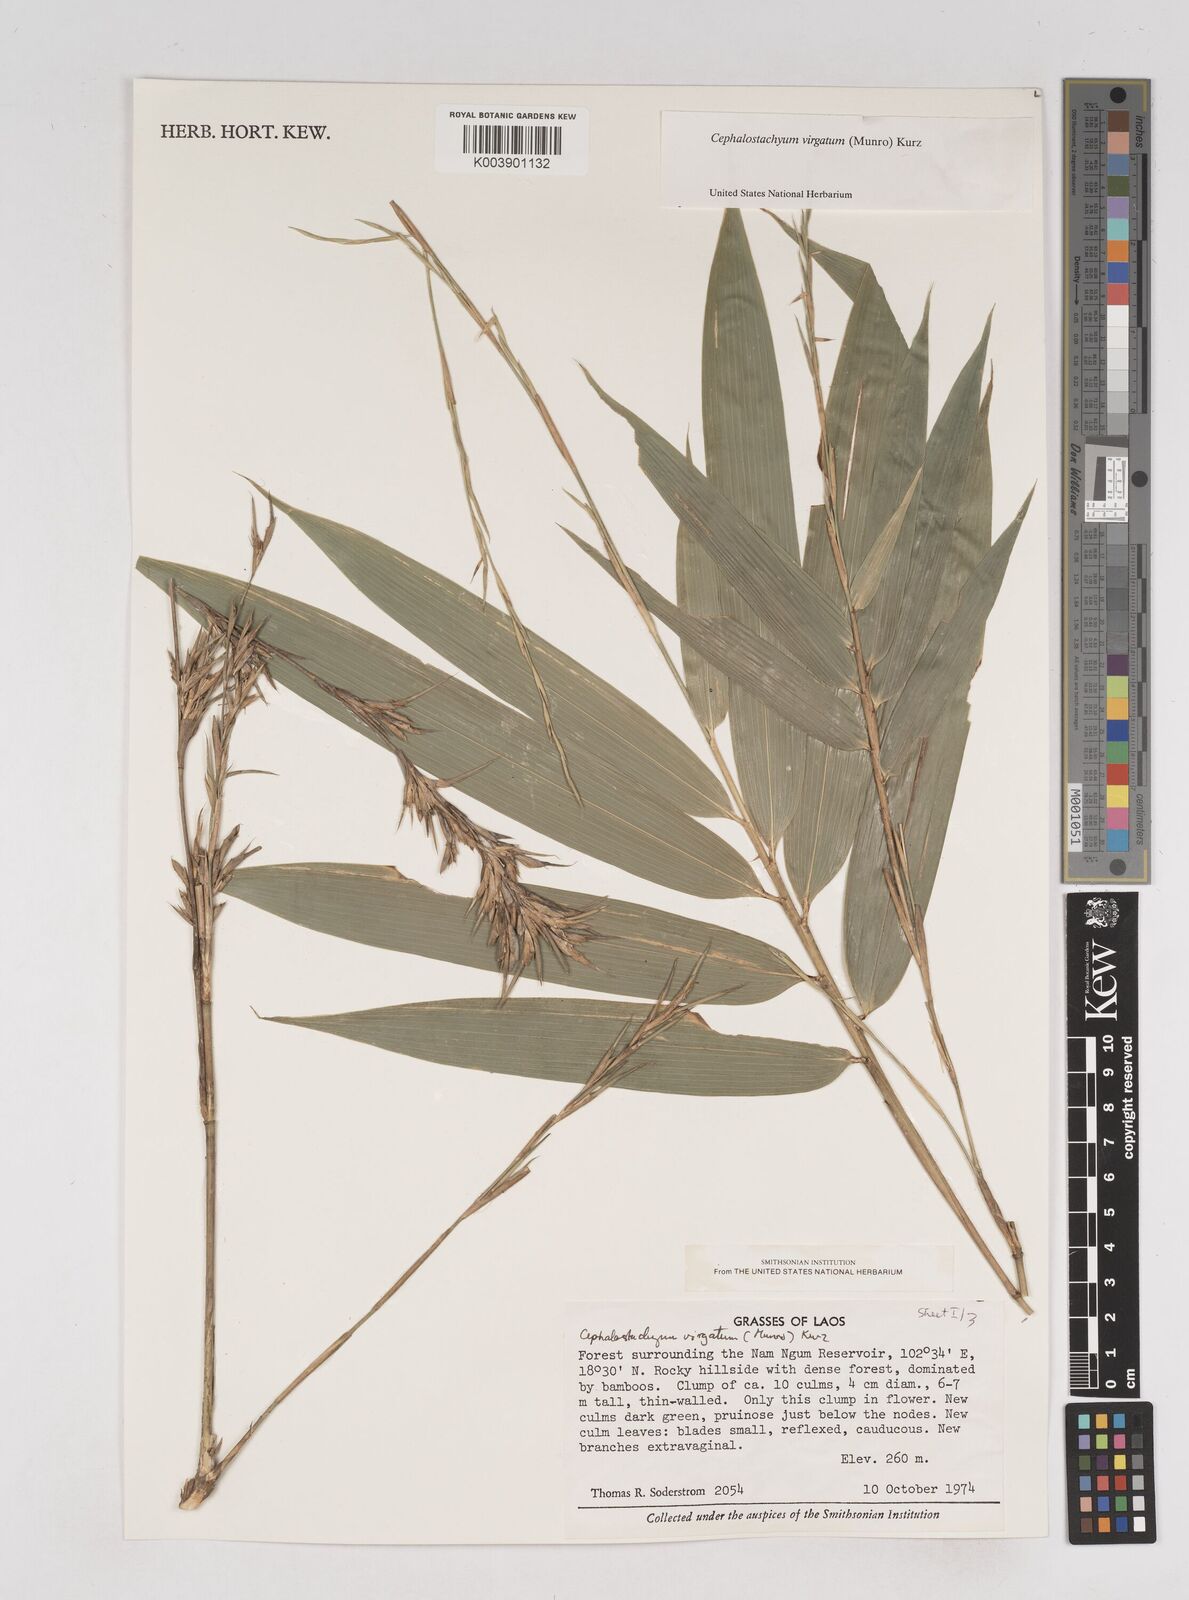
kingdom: Plantae
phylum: Tracheophyta
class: Liliopsida
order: Poales
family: Poaceae
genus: Schizostachyum
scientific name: Schizostachyum virgatum
